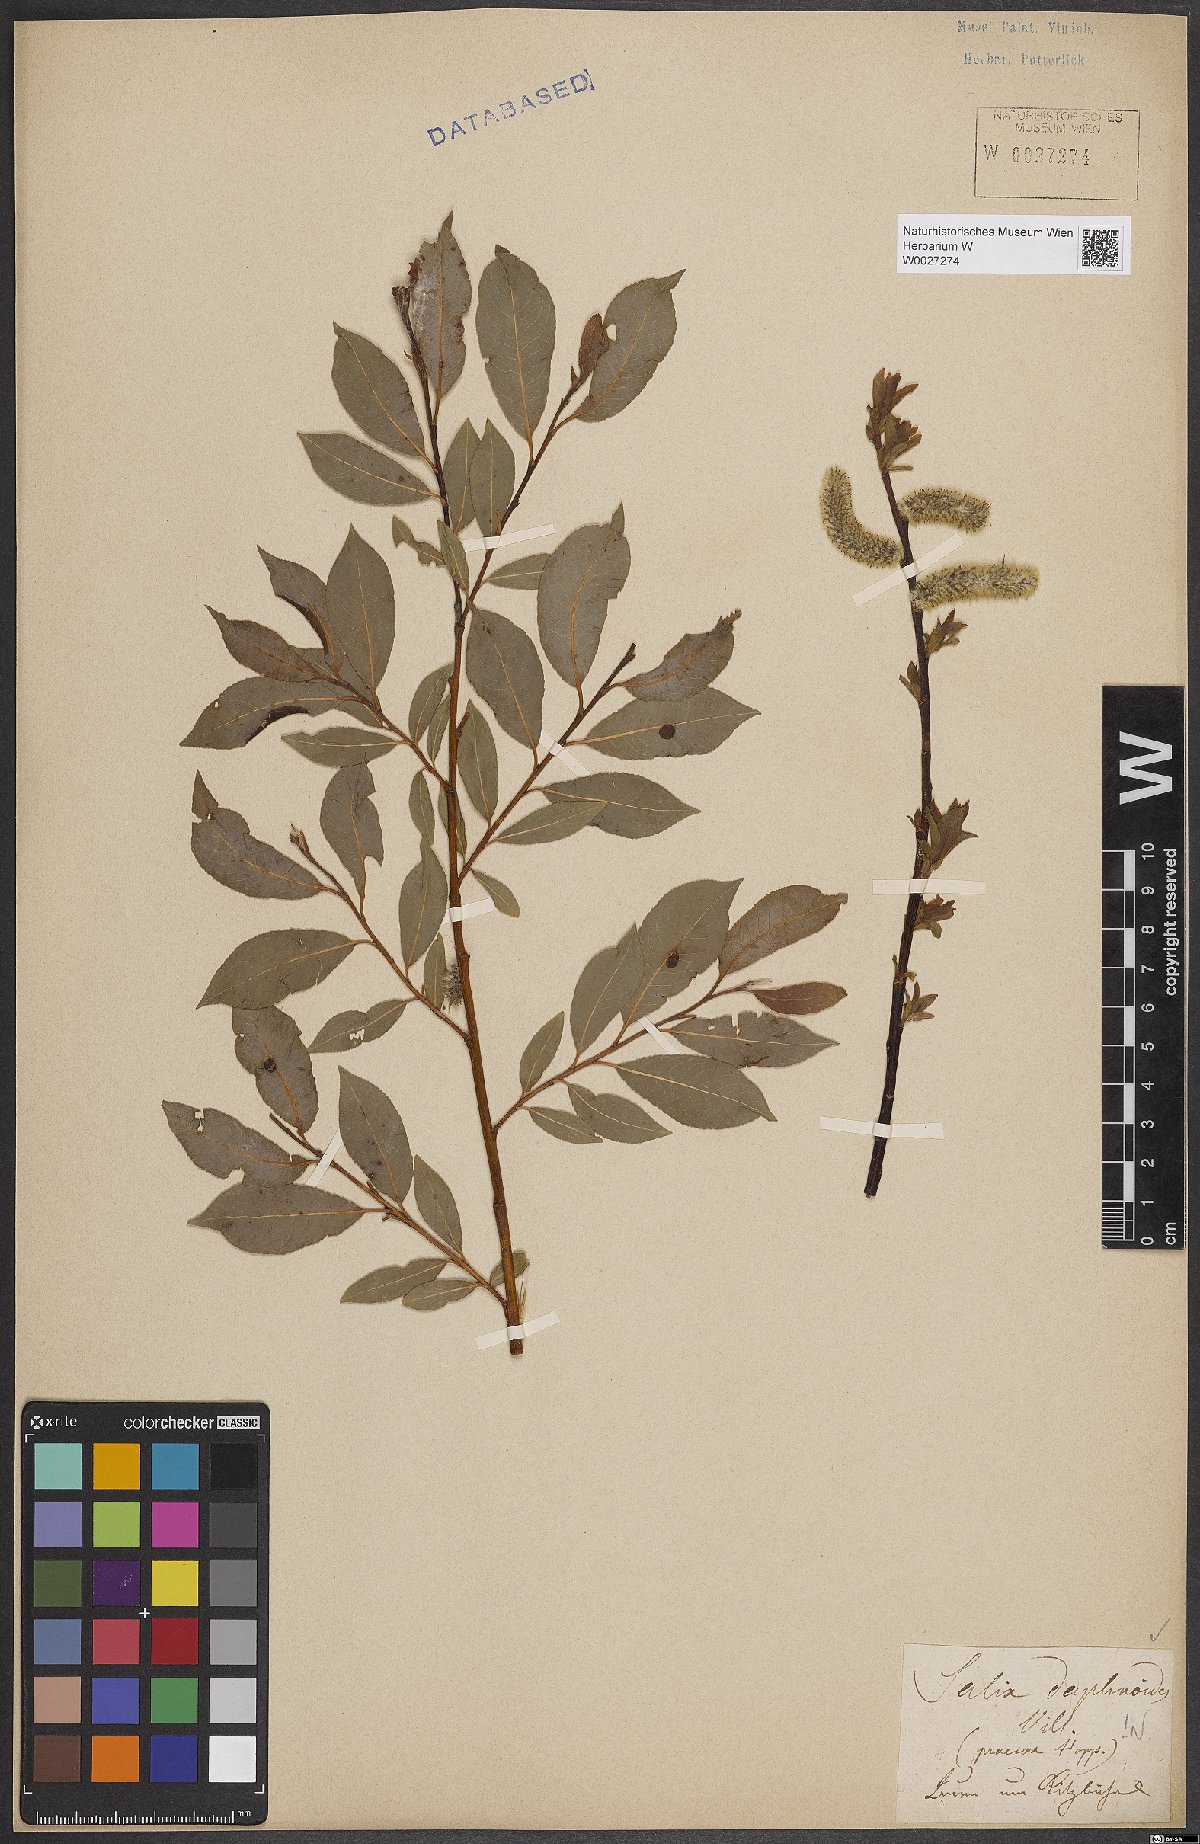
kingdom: Plantae
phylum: Tracheophyta
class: Magnoliopsida
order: Malpighiales
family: Salicaceae
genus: Salix
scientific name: Salix daphnoides
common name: European violet-willow
